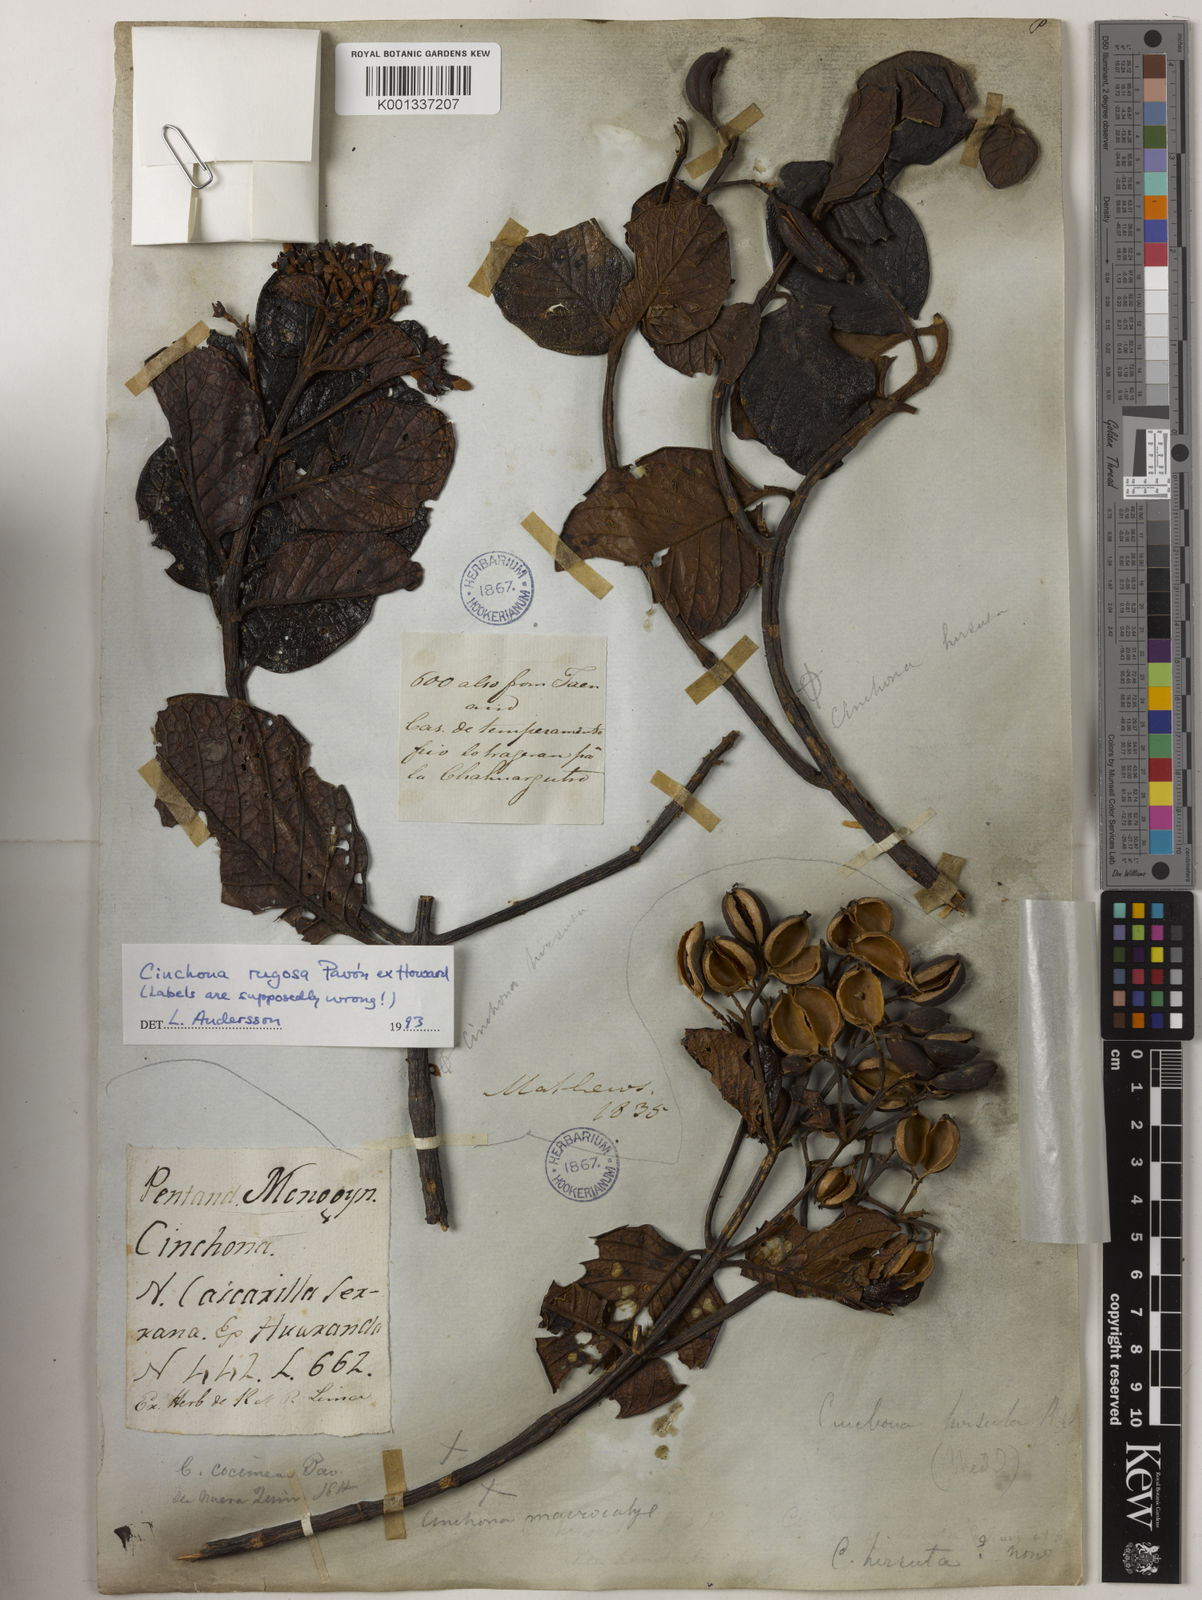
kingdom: Plantae
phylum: Tracheophyta
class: Magnoliopsida
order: Gentianales
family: Rubiaceae
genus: Cinchona
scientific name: Cinchona rugosa
